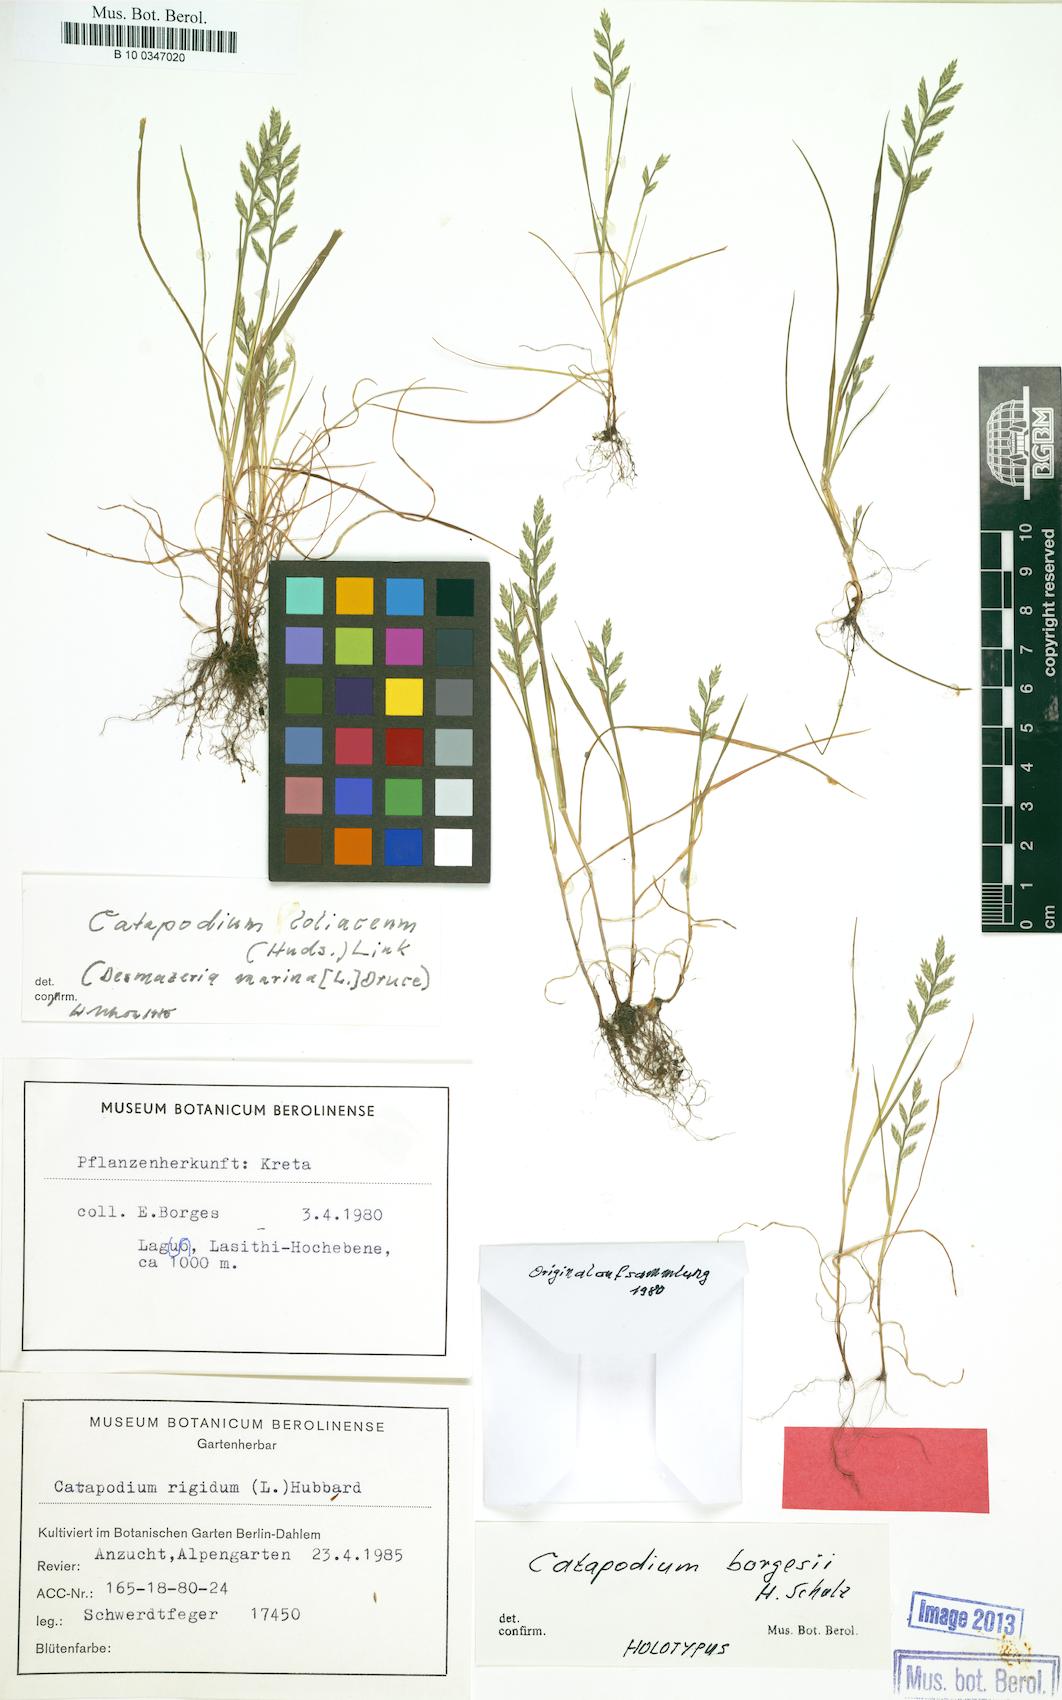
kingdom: Plantae
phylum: Tracheophyta
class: Liliopsida
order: Poales
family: Poaceae
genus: Catapodium
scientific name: Catapodium borgesii
